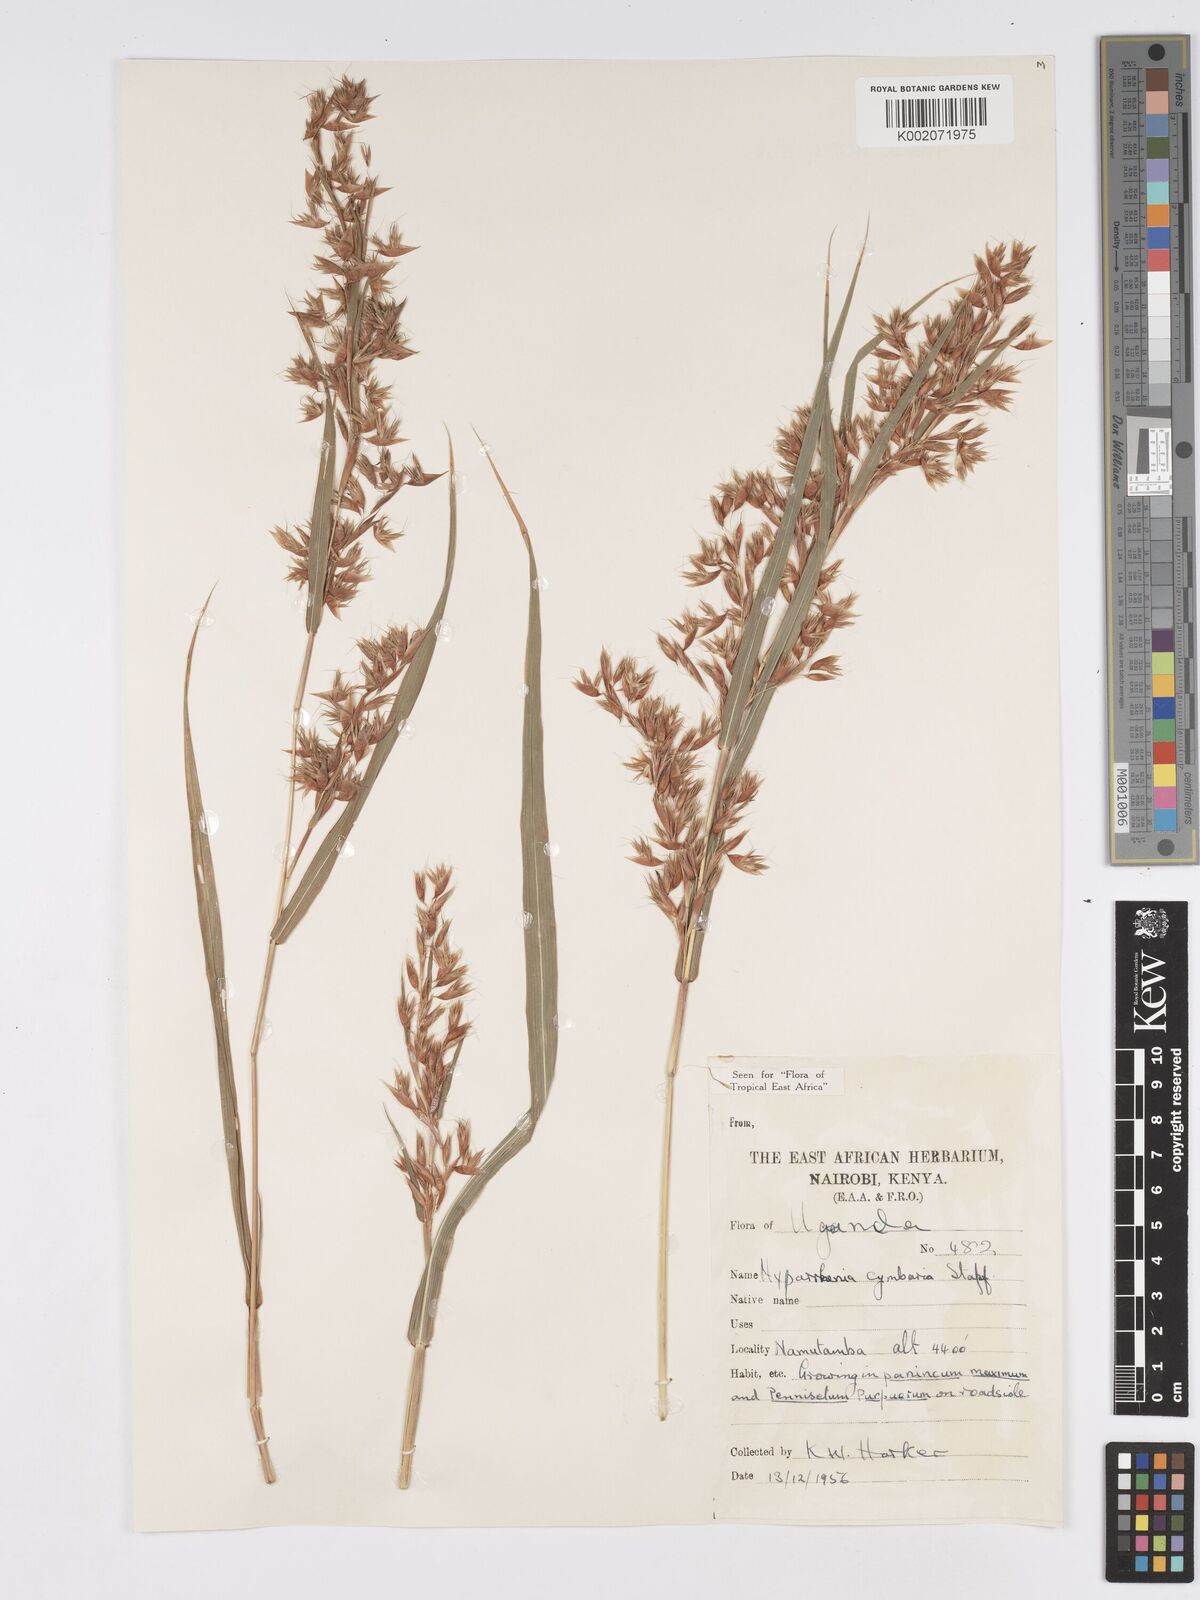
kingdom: Plantae
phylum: Tracheophyta
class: Liliopsida
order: Poales
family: Poaceae
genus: Hyparrhenia
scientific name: Hyparrhenia cymbaria
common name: Boat thatching grass
